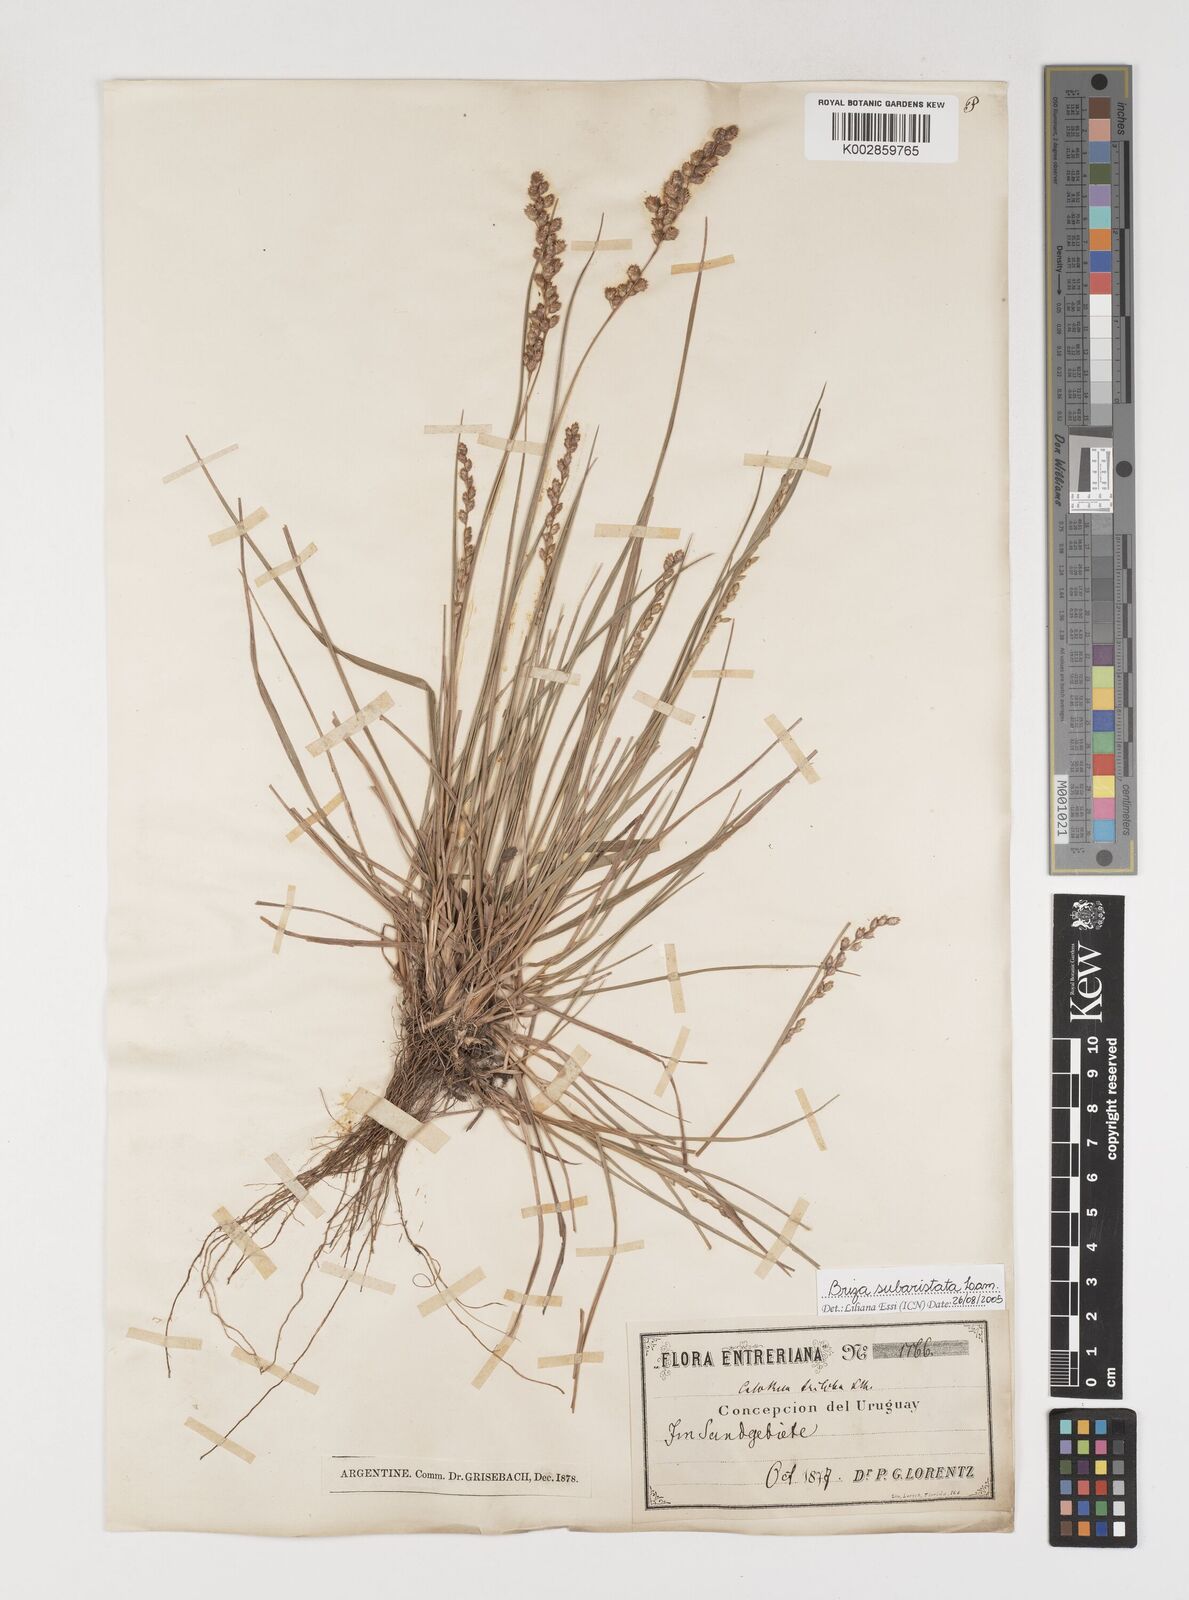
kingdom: Plantae
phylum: Tracheophyta
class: Liliopsida
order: Poales
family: Poaceae
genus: Chascolytrum
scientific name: Chascolytrum subaristatum
